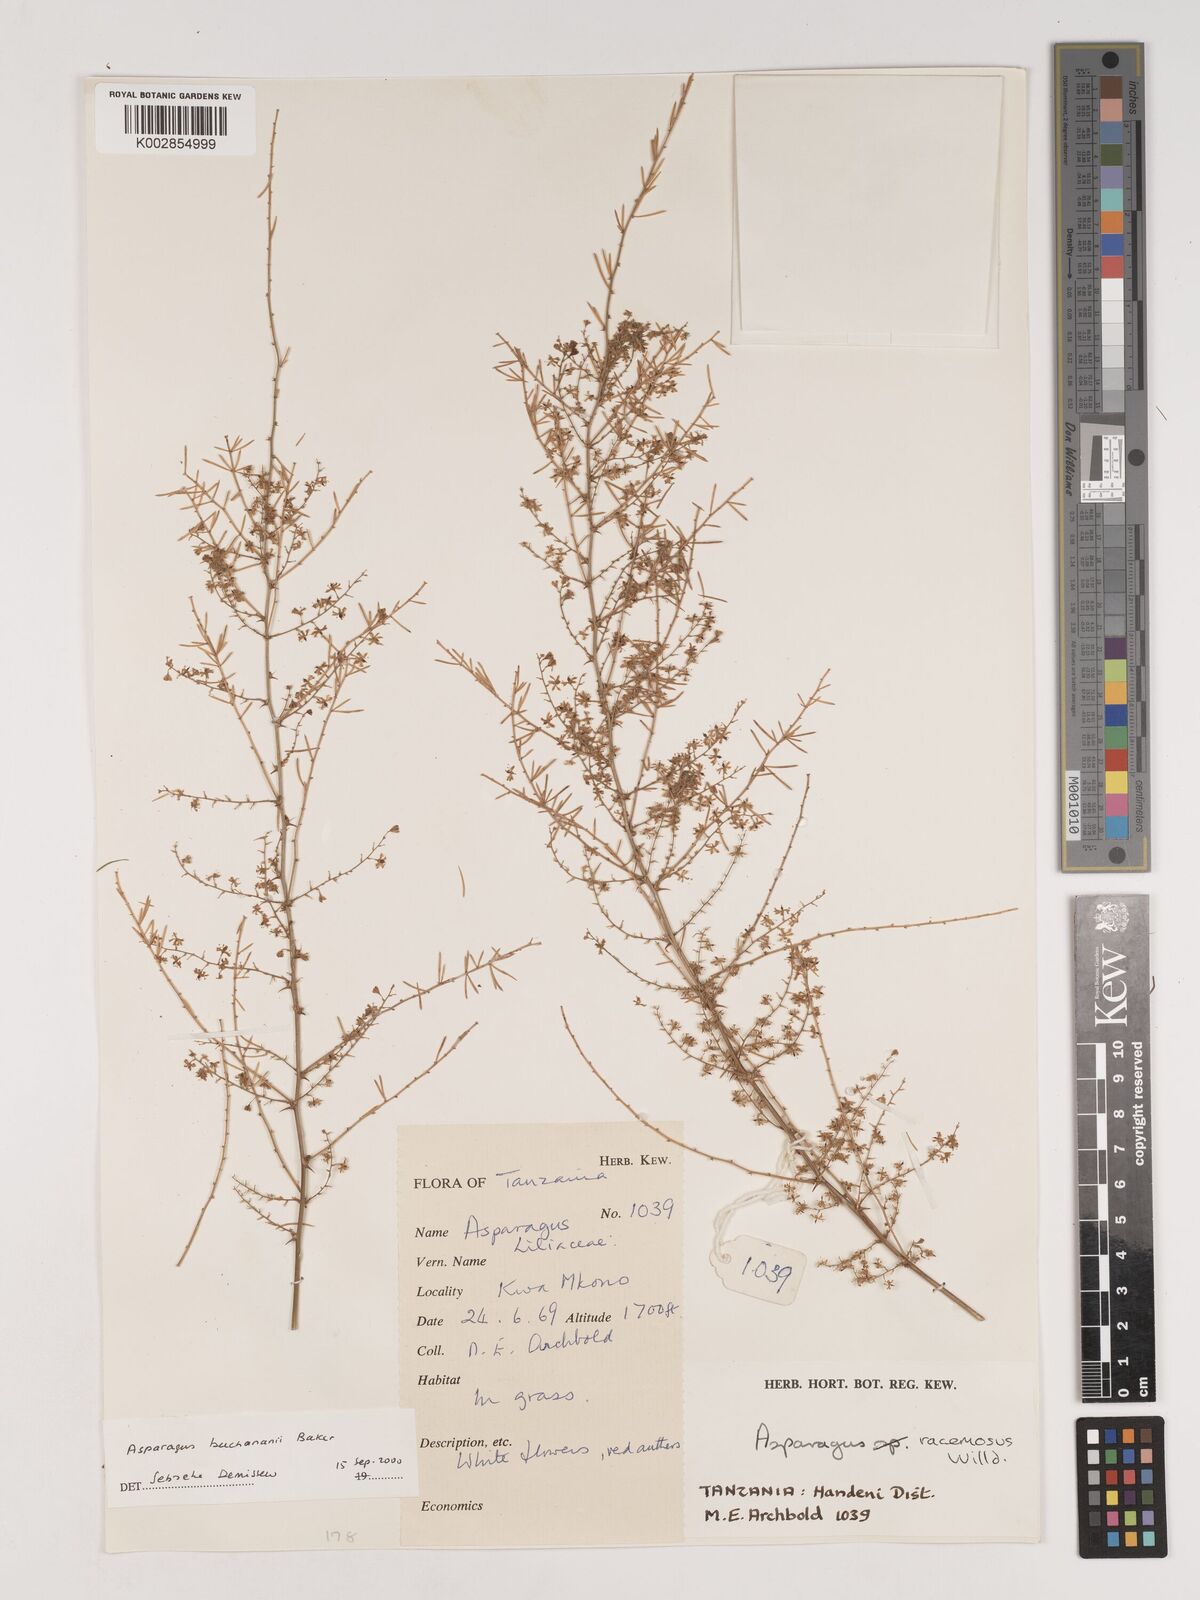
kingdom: Plantae
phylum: Tracheophyta
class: Liliopsida
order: Asparagales
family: Asparagaceae
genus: Asparagus
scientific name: Asparagus buchananii
